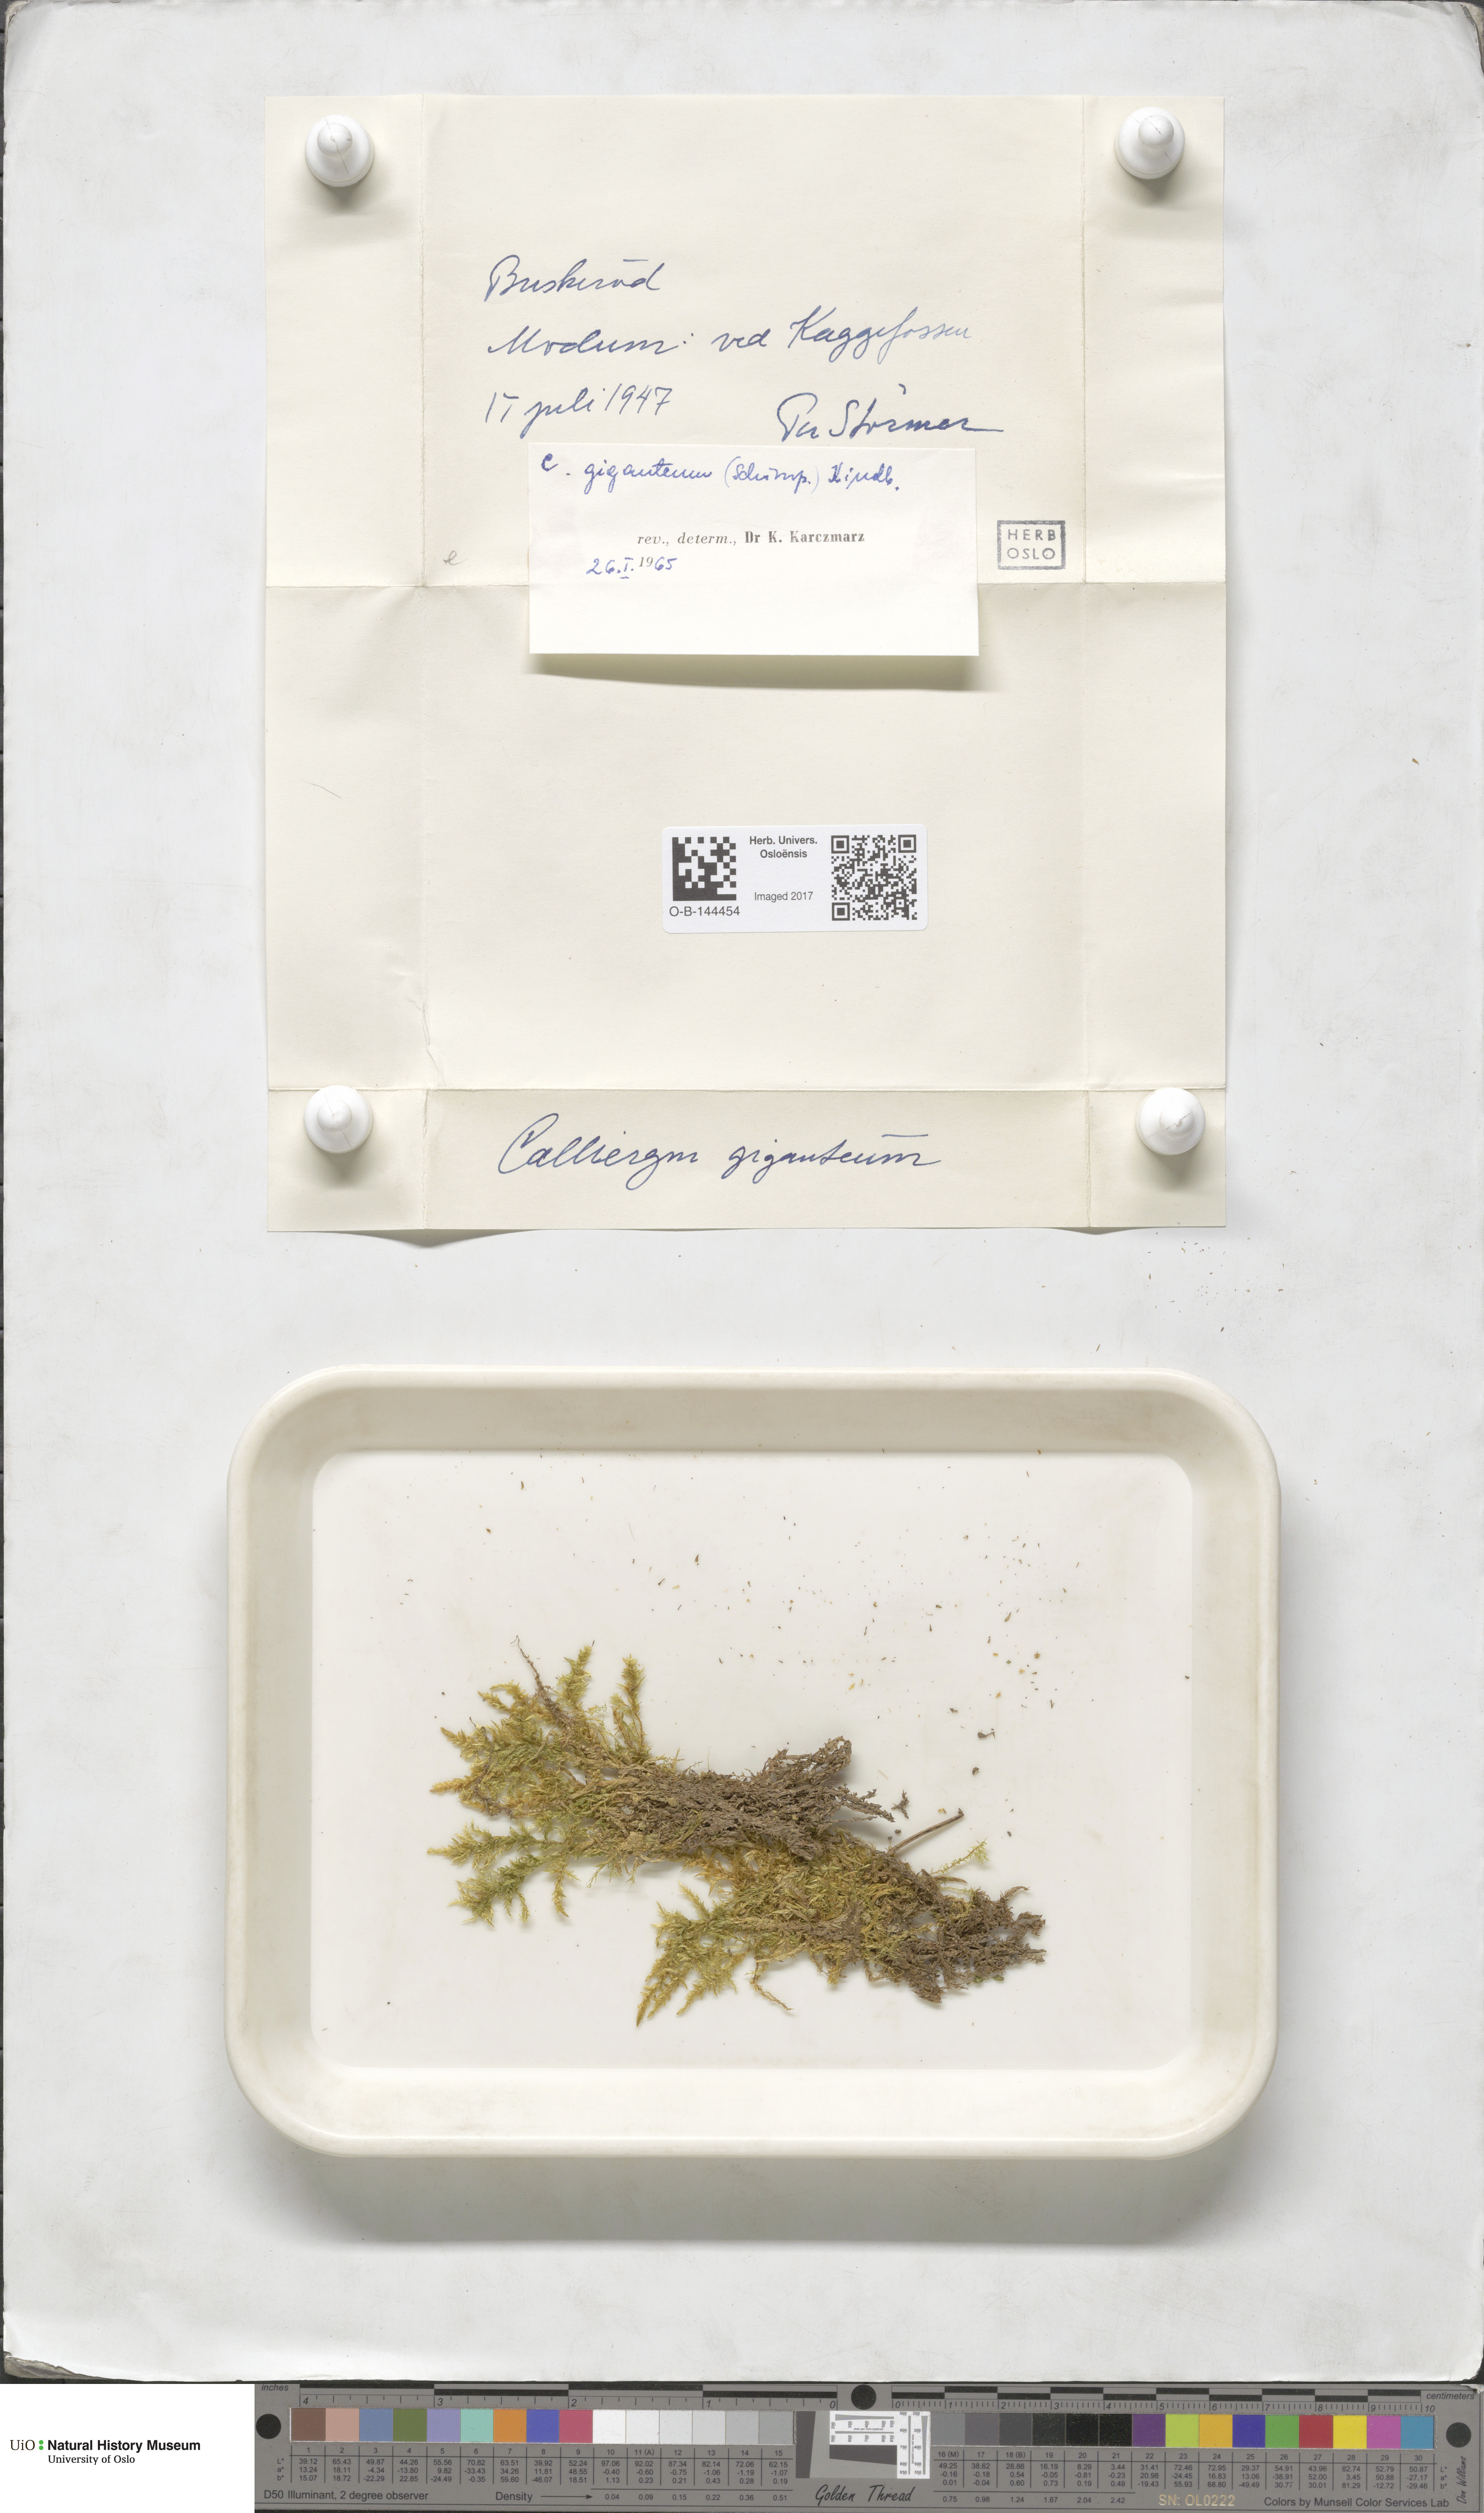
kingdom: Plantae
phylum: Bryophyta
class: Bryopsida
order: Hypnales
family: Calliergonaceae
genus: Calliergon
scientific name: Calliergon giganteum
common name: Giant spear moss
